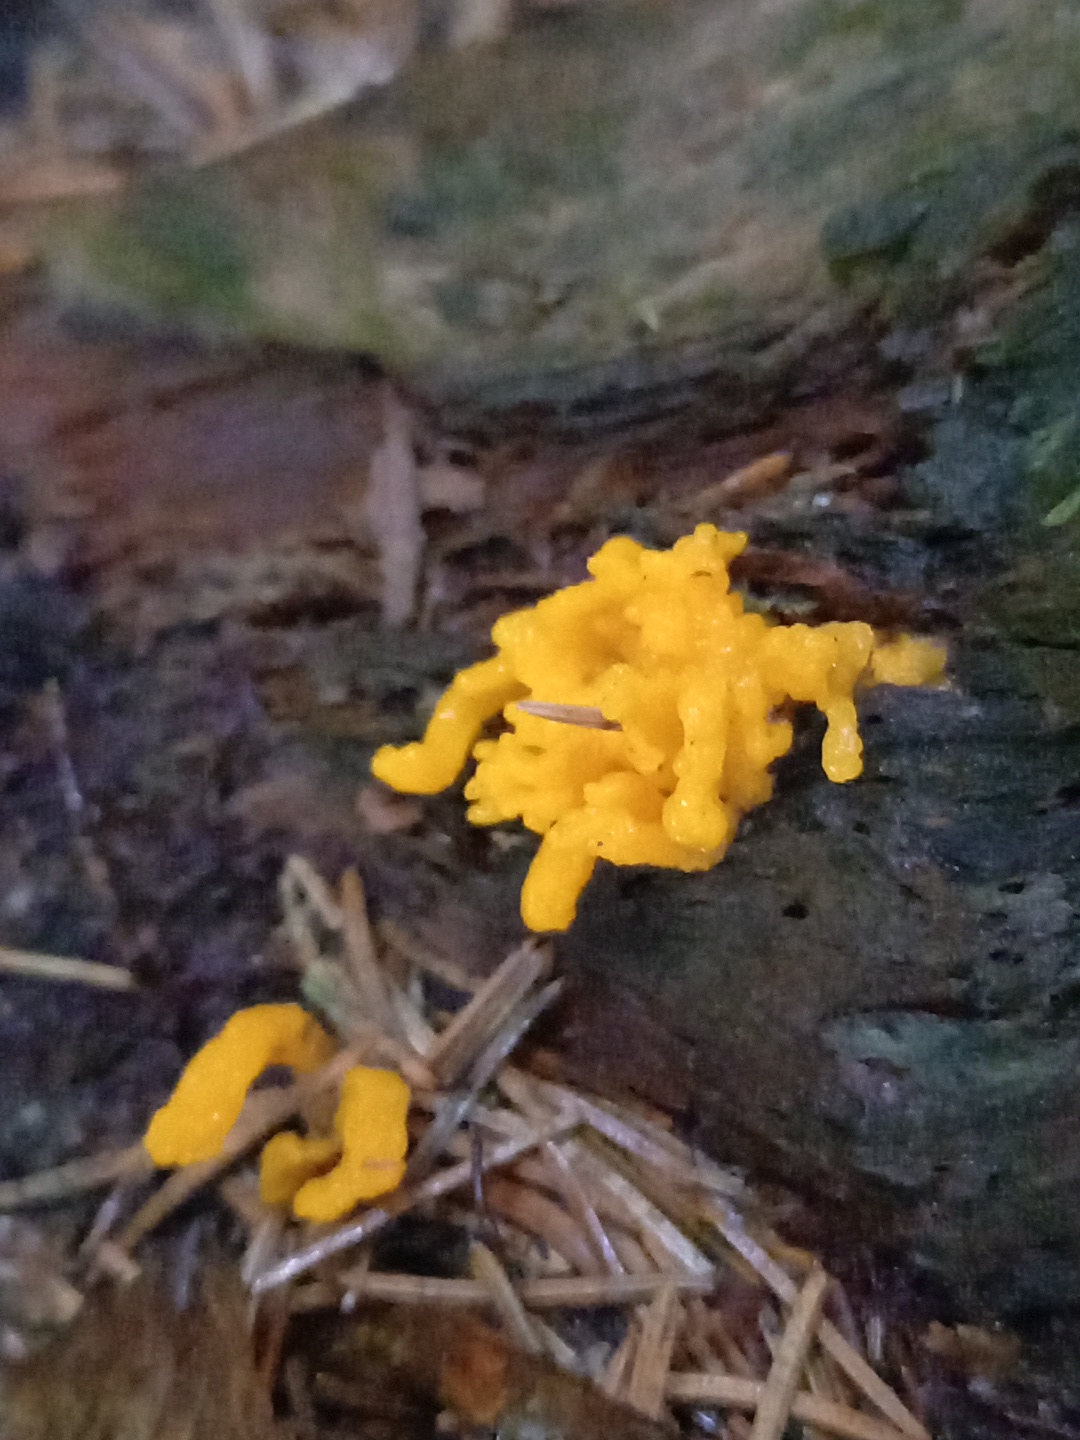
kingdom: Fungi
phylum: Basidiomycota
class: Dacrymycetes
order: Dacrymycetales
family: Dacrymycetaceae
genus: Calocera
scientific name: Calocera
